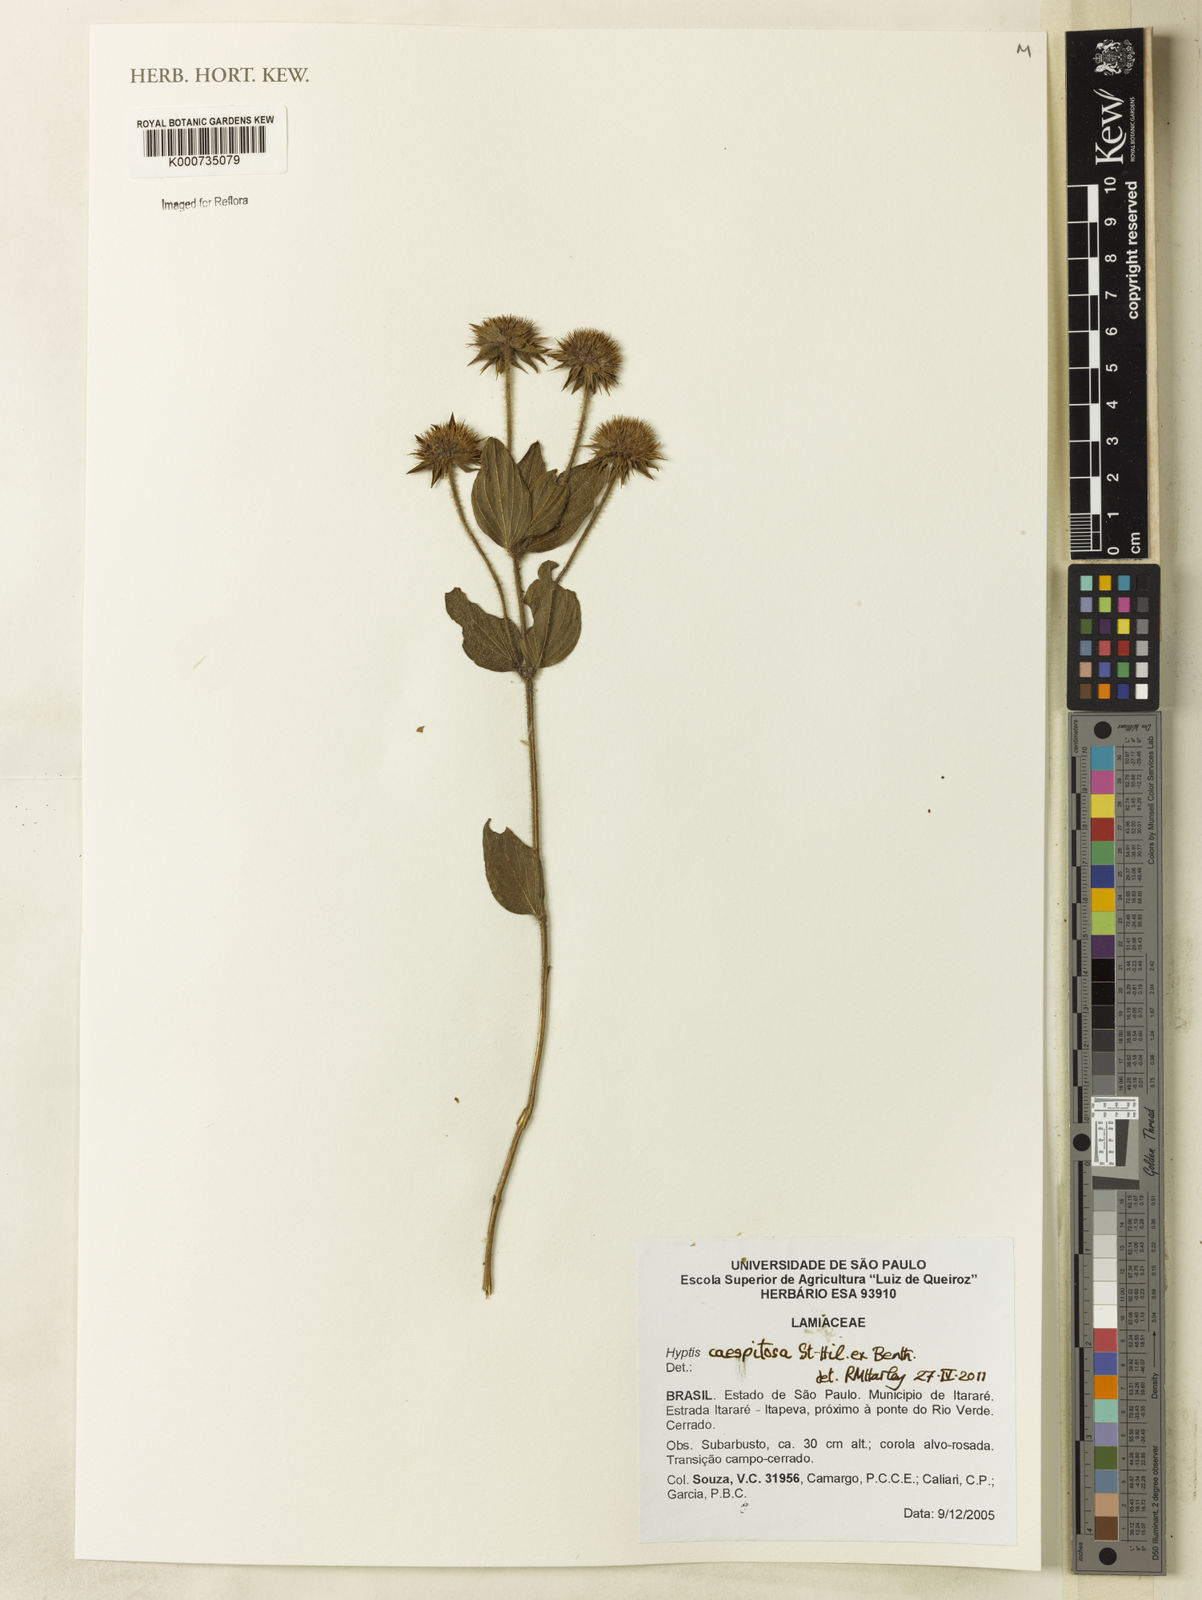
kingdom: Plantae
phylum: Tracheophyta
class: Magnoliopsida
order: Lamiales
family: Lamiaceae
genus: Hyptis
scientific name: Hyptis
